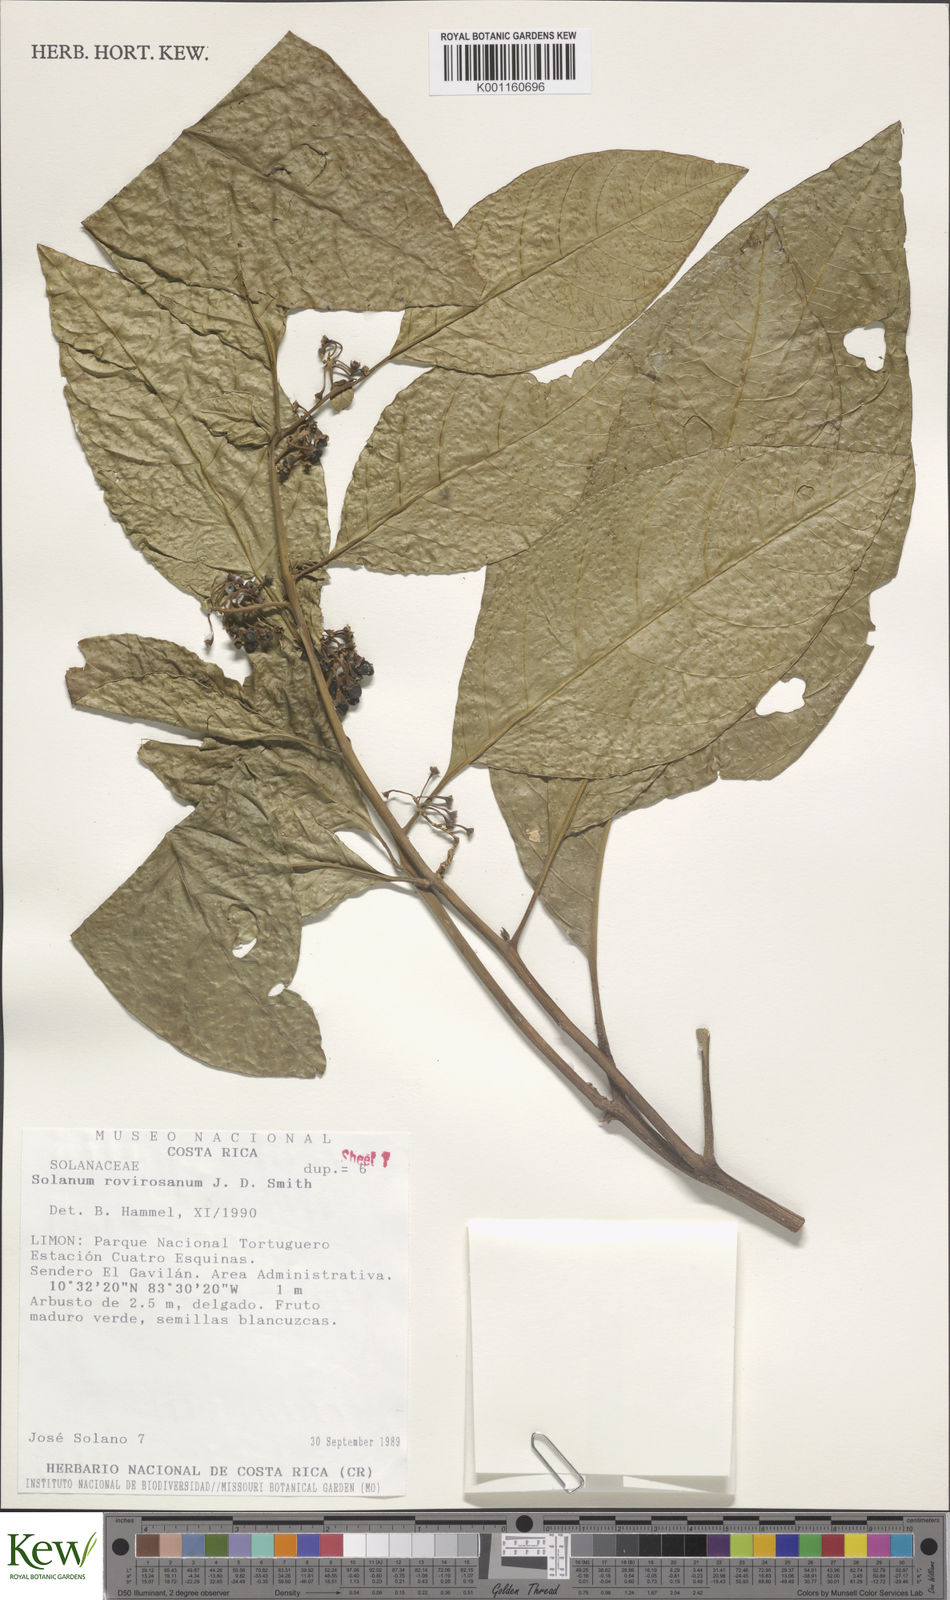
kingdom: Plantae
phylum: Tracheophyta
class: Magnoliopsida
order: Solanales
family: Solanaceae
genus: Solanum
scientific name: Solanum rovirosanum
